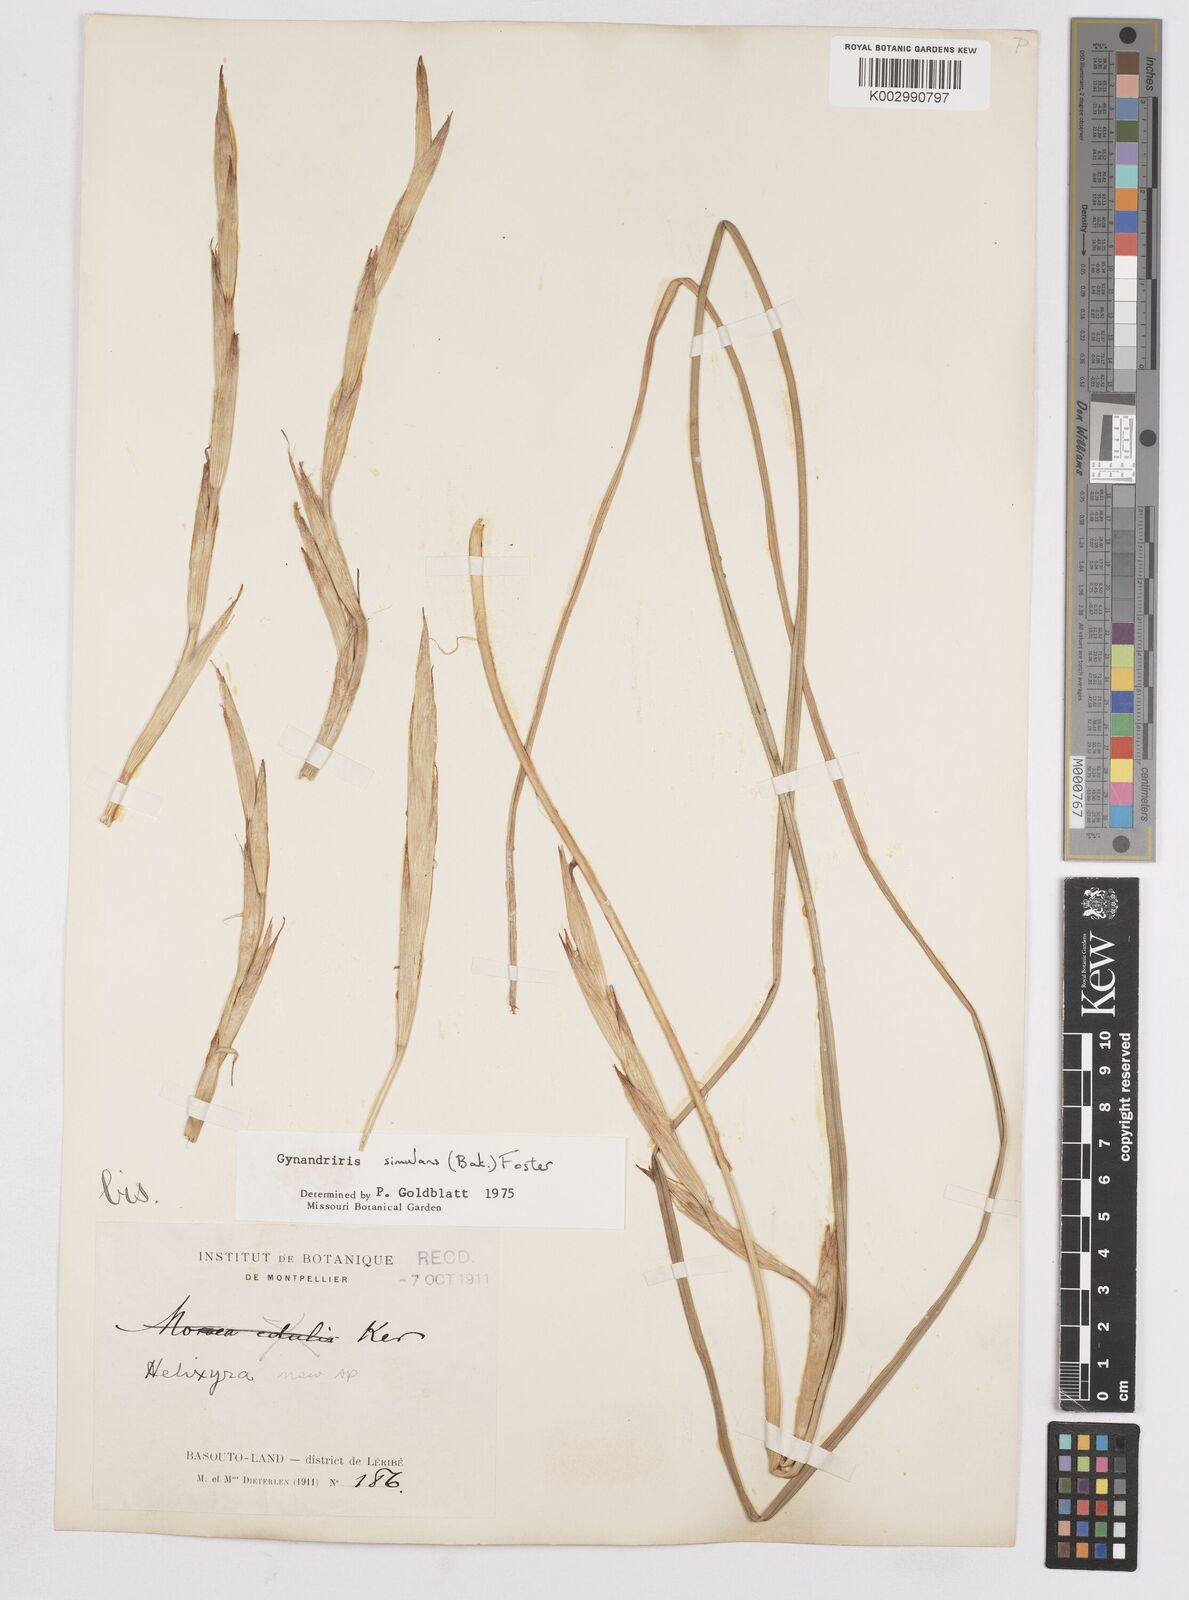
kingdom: Plantae
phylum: Tracheophyta
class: Liliopsida
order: Asparagales
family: Iridaceae
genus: Moraea
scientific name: Moraea simulans
